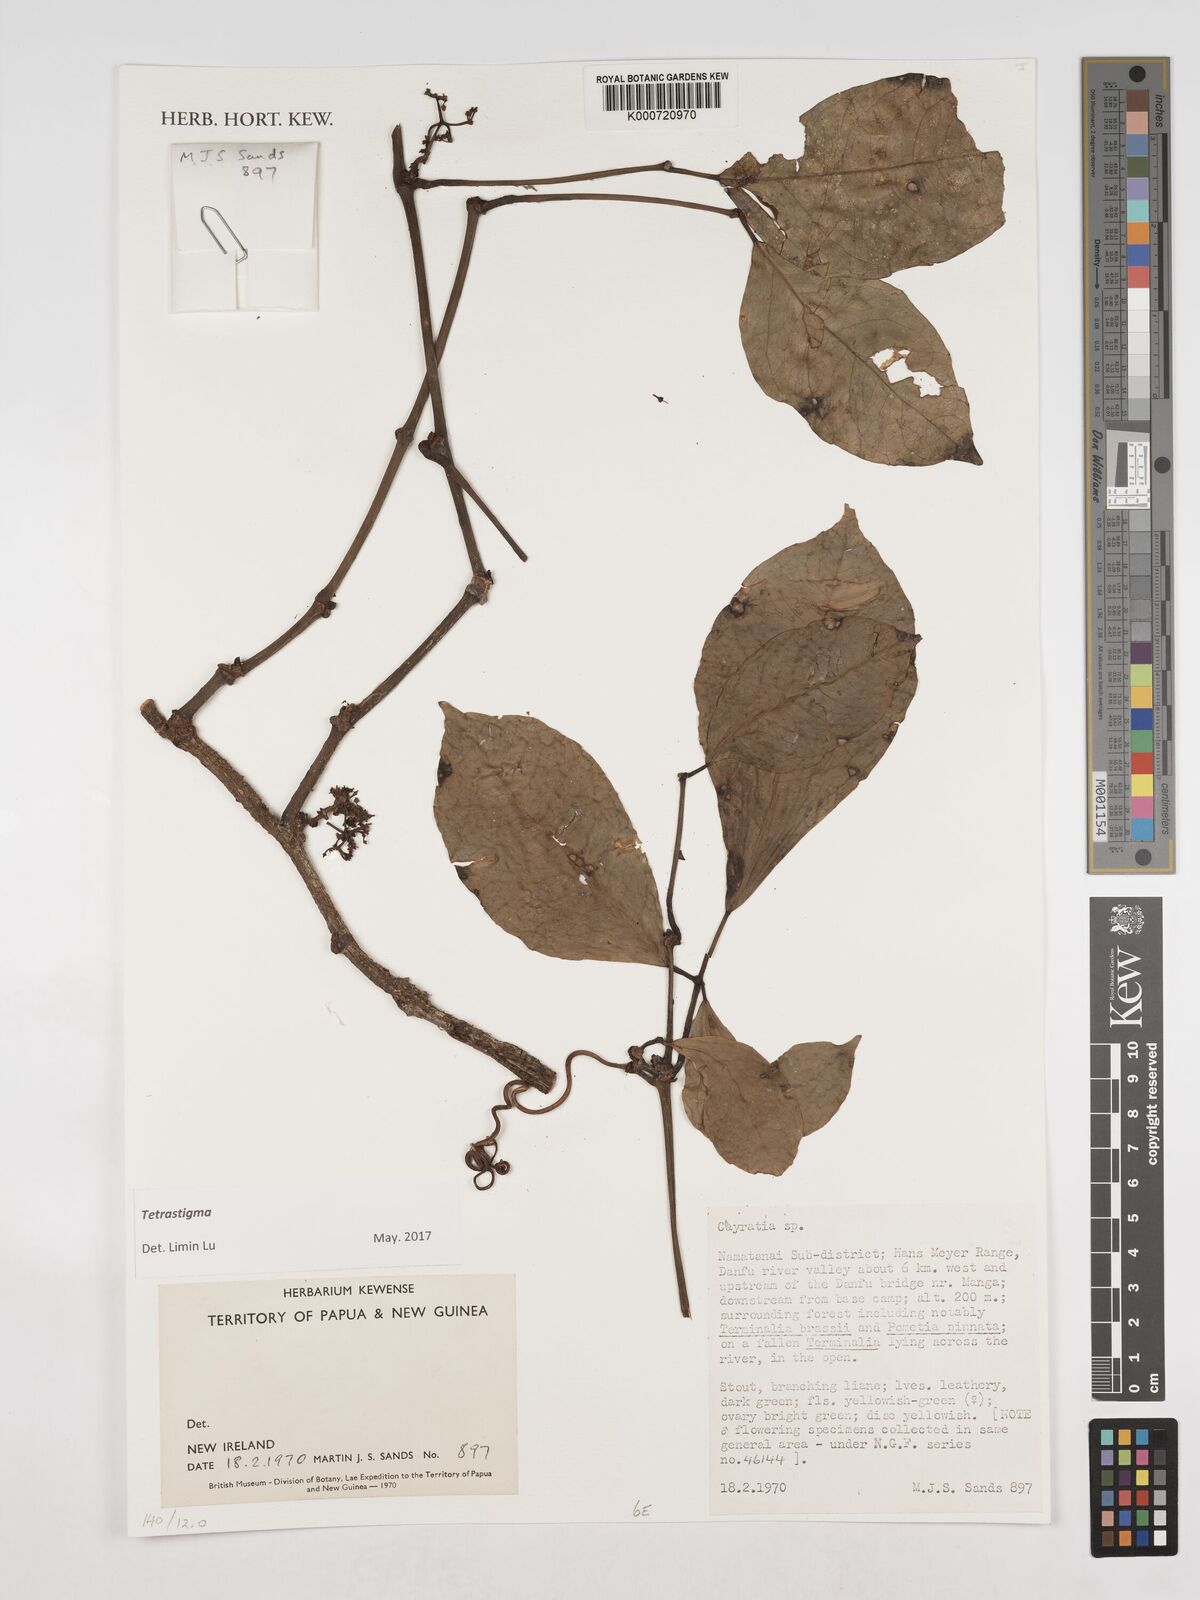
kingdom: Plantae
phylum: Tracheophyta
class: Magnoliopsida
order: Vitales
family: Vitaceae
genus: Tetrastigma
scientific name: Tetrastigma
